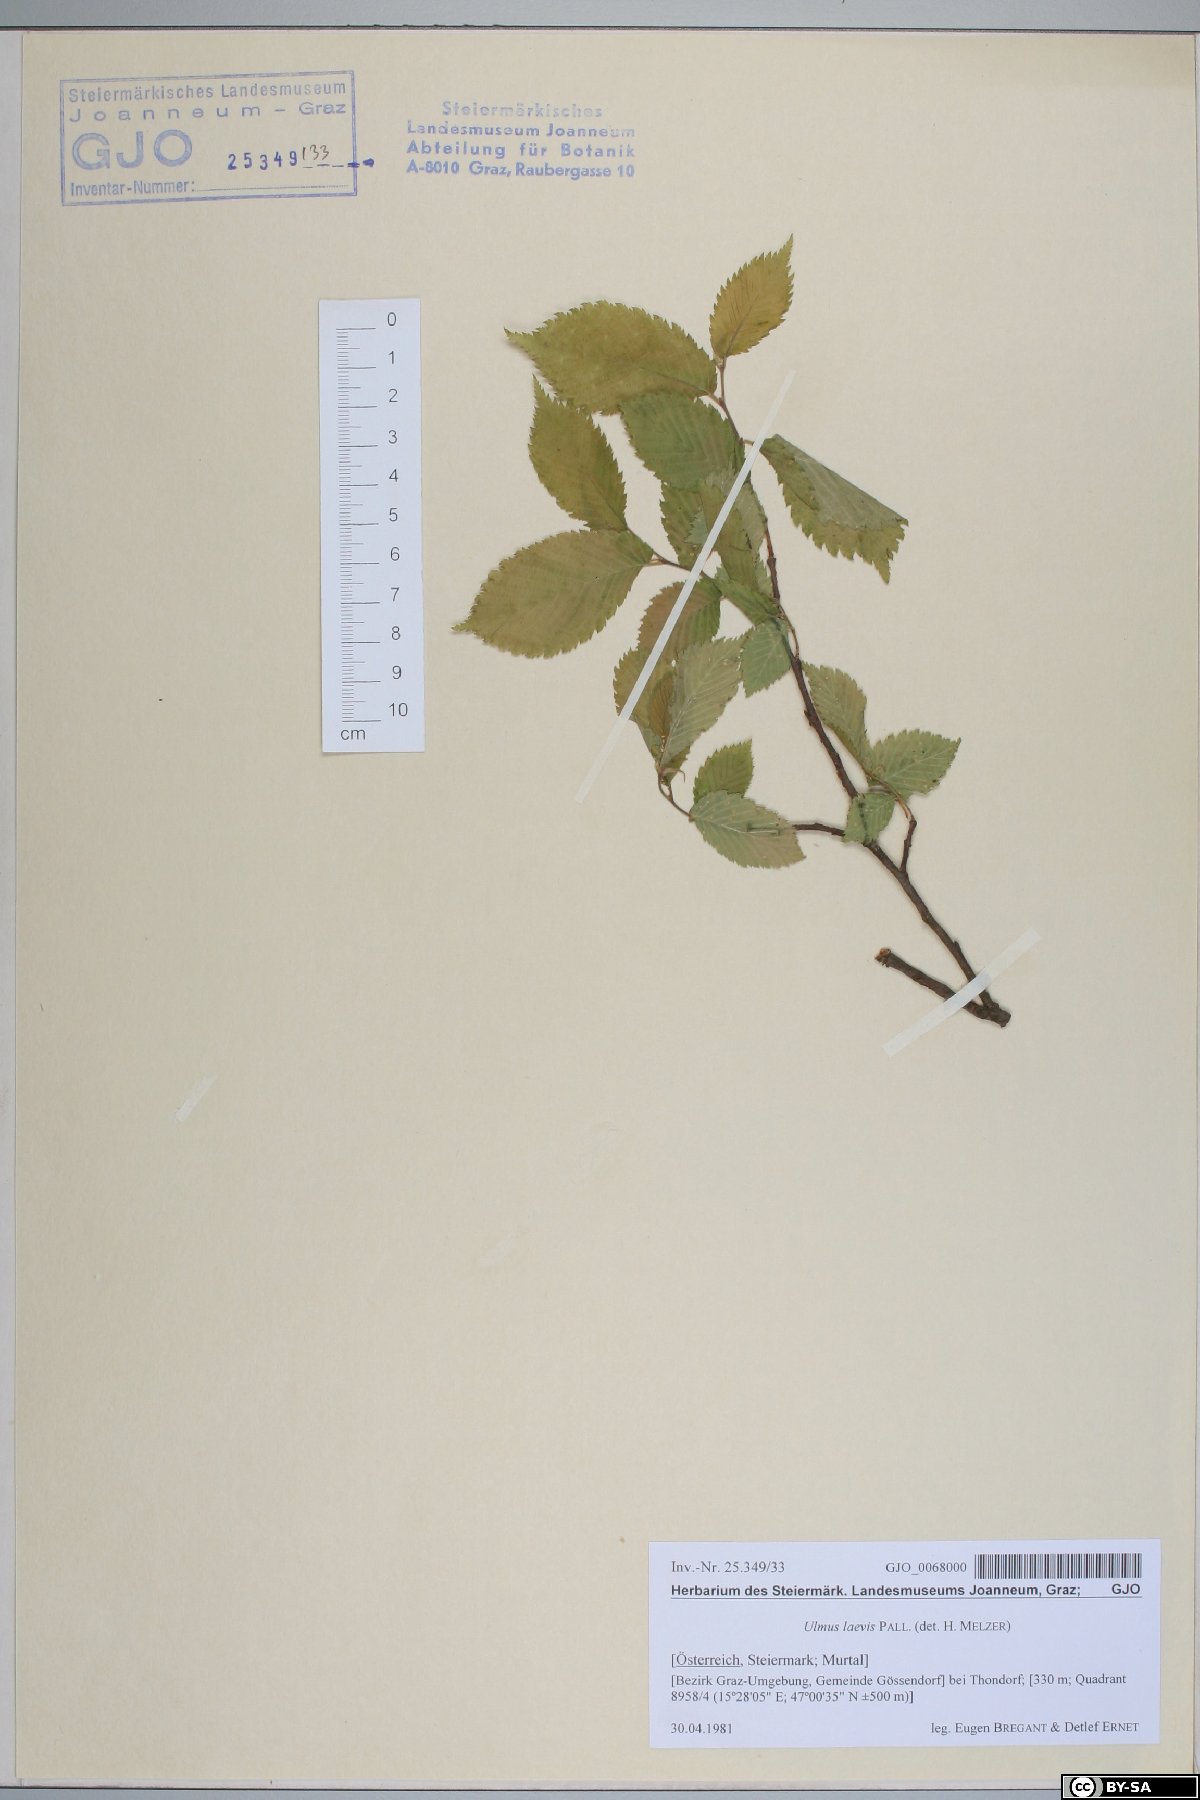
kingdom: Plantae
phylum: Tracheophyta
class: Magnoliopsida
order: Rosales
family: Ulmaceae
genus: Ulmus
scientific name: Ulmus laevis
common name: European white-elm
